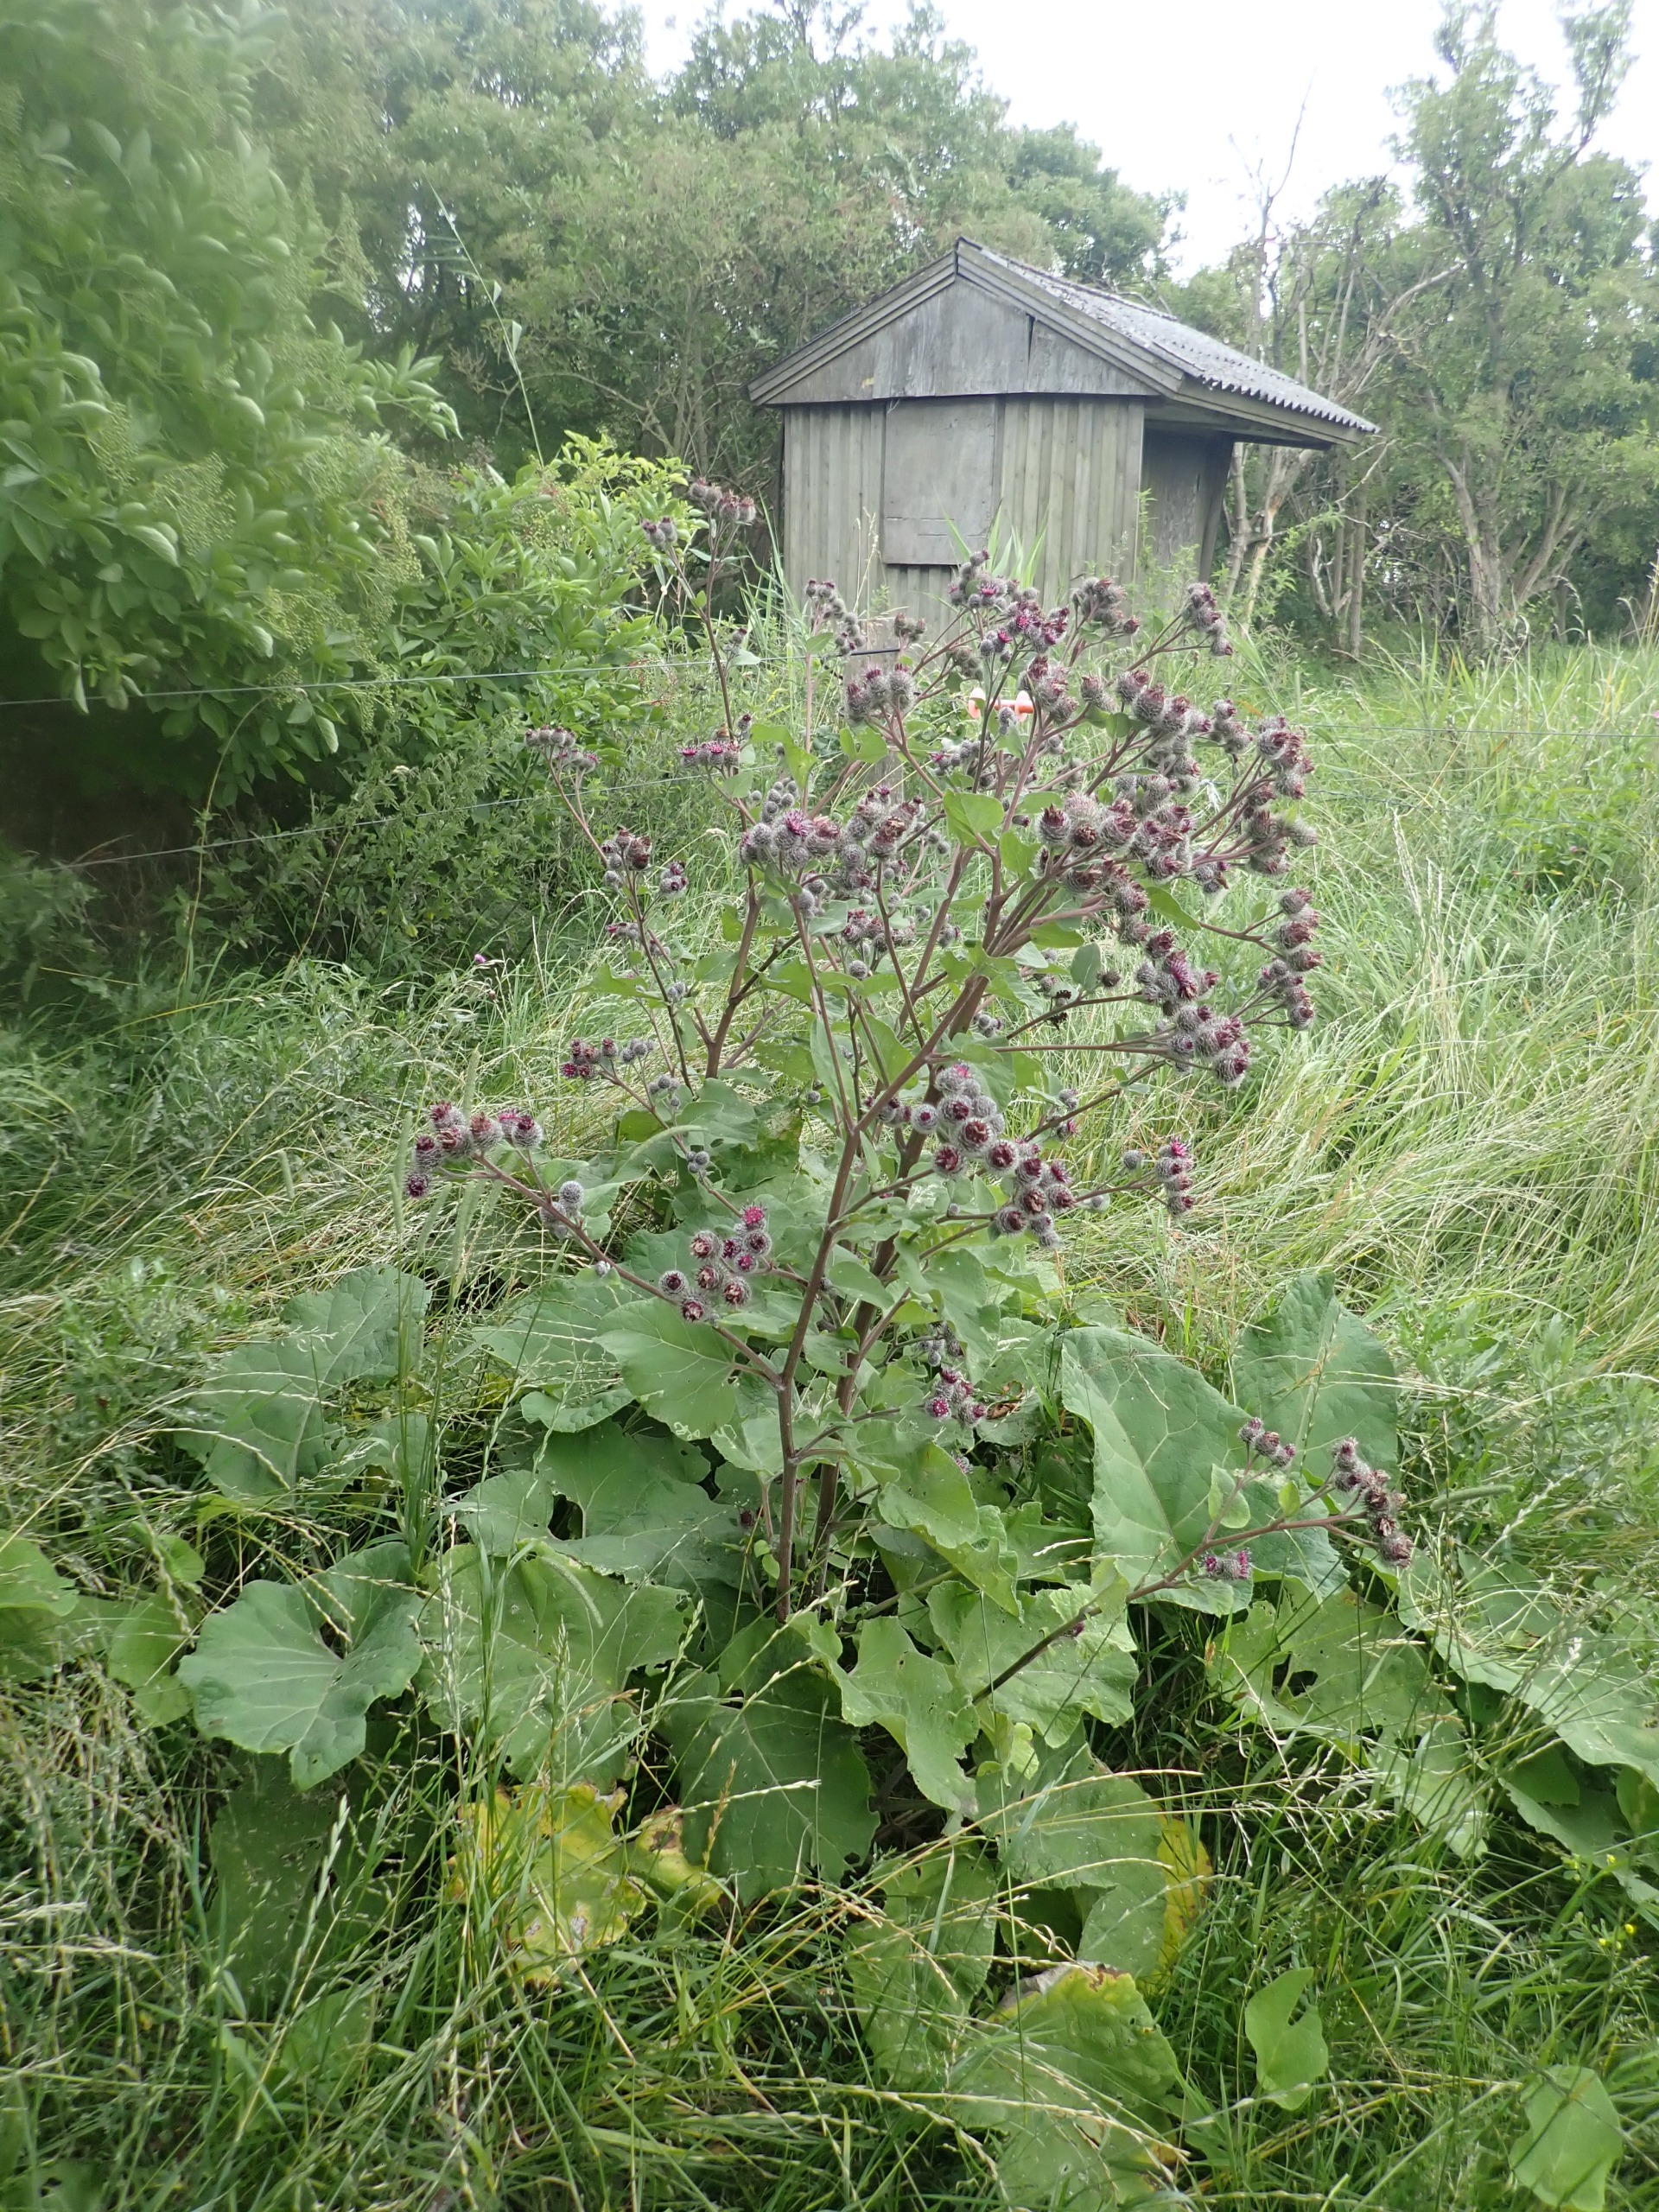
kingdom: Plantae
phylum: Tracheophyta
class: Magnoliopsida
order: Asterales
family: Asteraceae
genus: Arctium
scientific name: Arctium tomentosum
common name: Filtet burre
